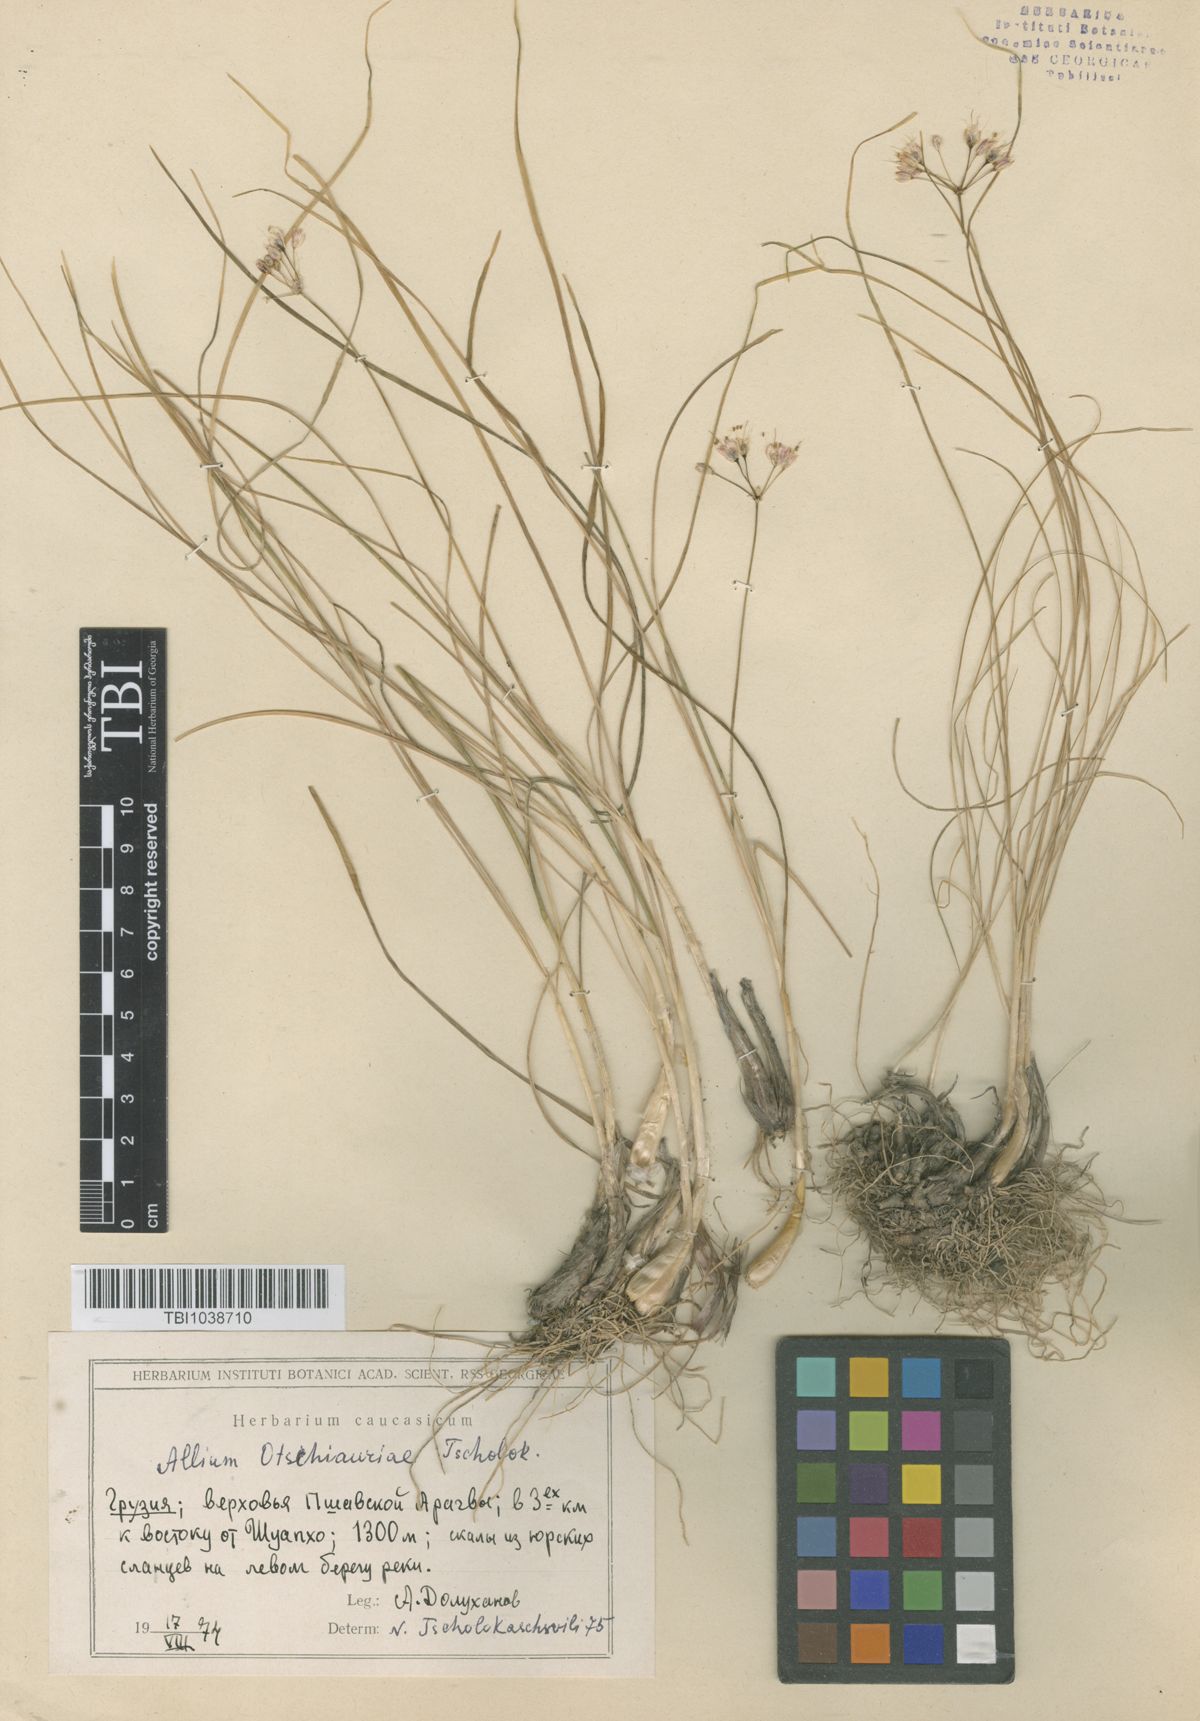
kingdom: Plantae
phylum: Tracheophyta
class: Liliopsida
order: Asparagales
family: Amaryllidaceae
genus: Allium
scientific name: Allium albovianum
